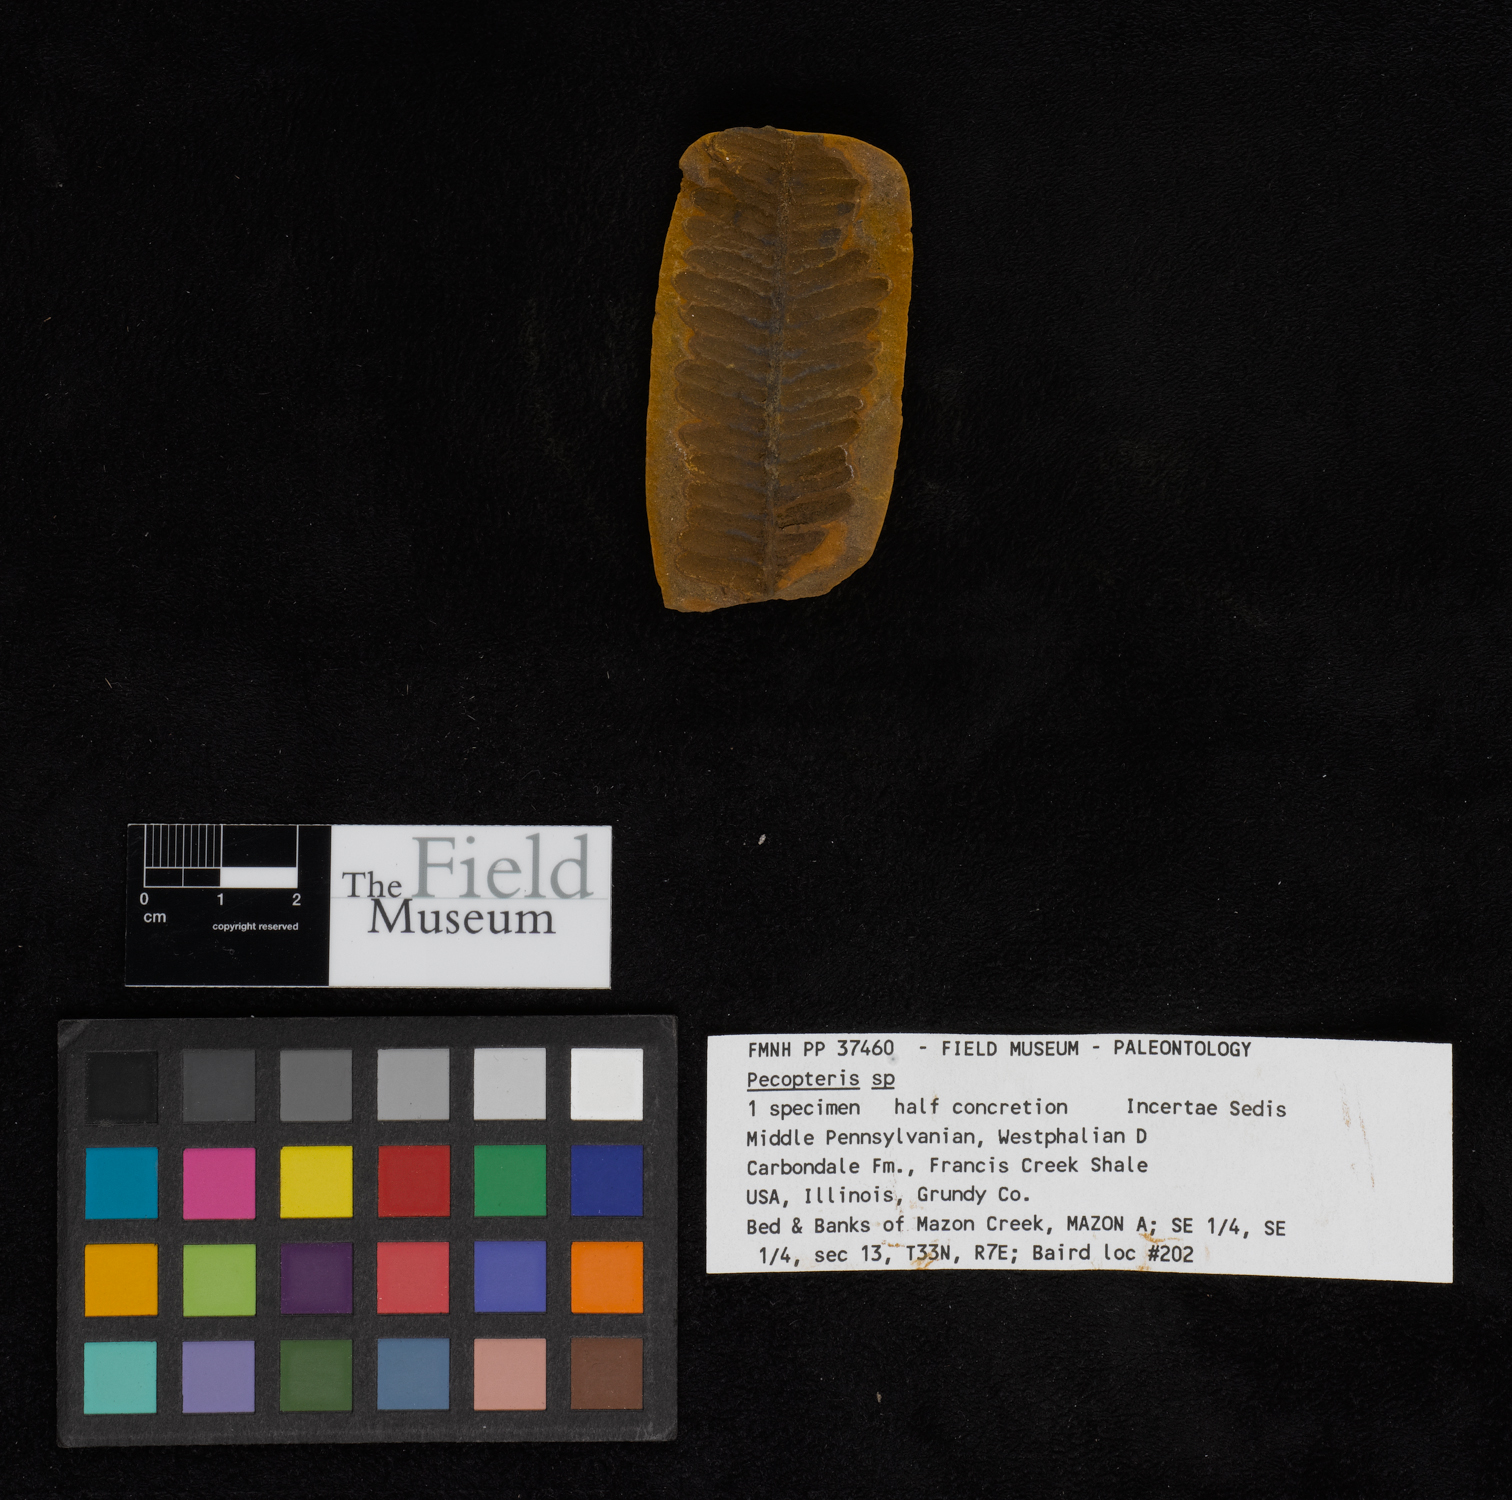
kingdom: Plantae
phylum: Tracheophyta
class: Polypodiopsida
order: Marattiales
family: Asterothecaceae
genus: Pecopteris
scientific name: Pecopteris
